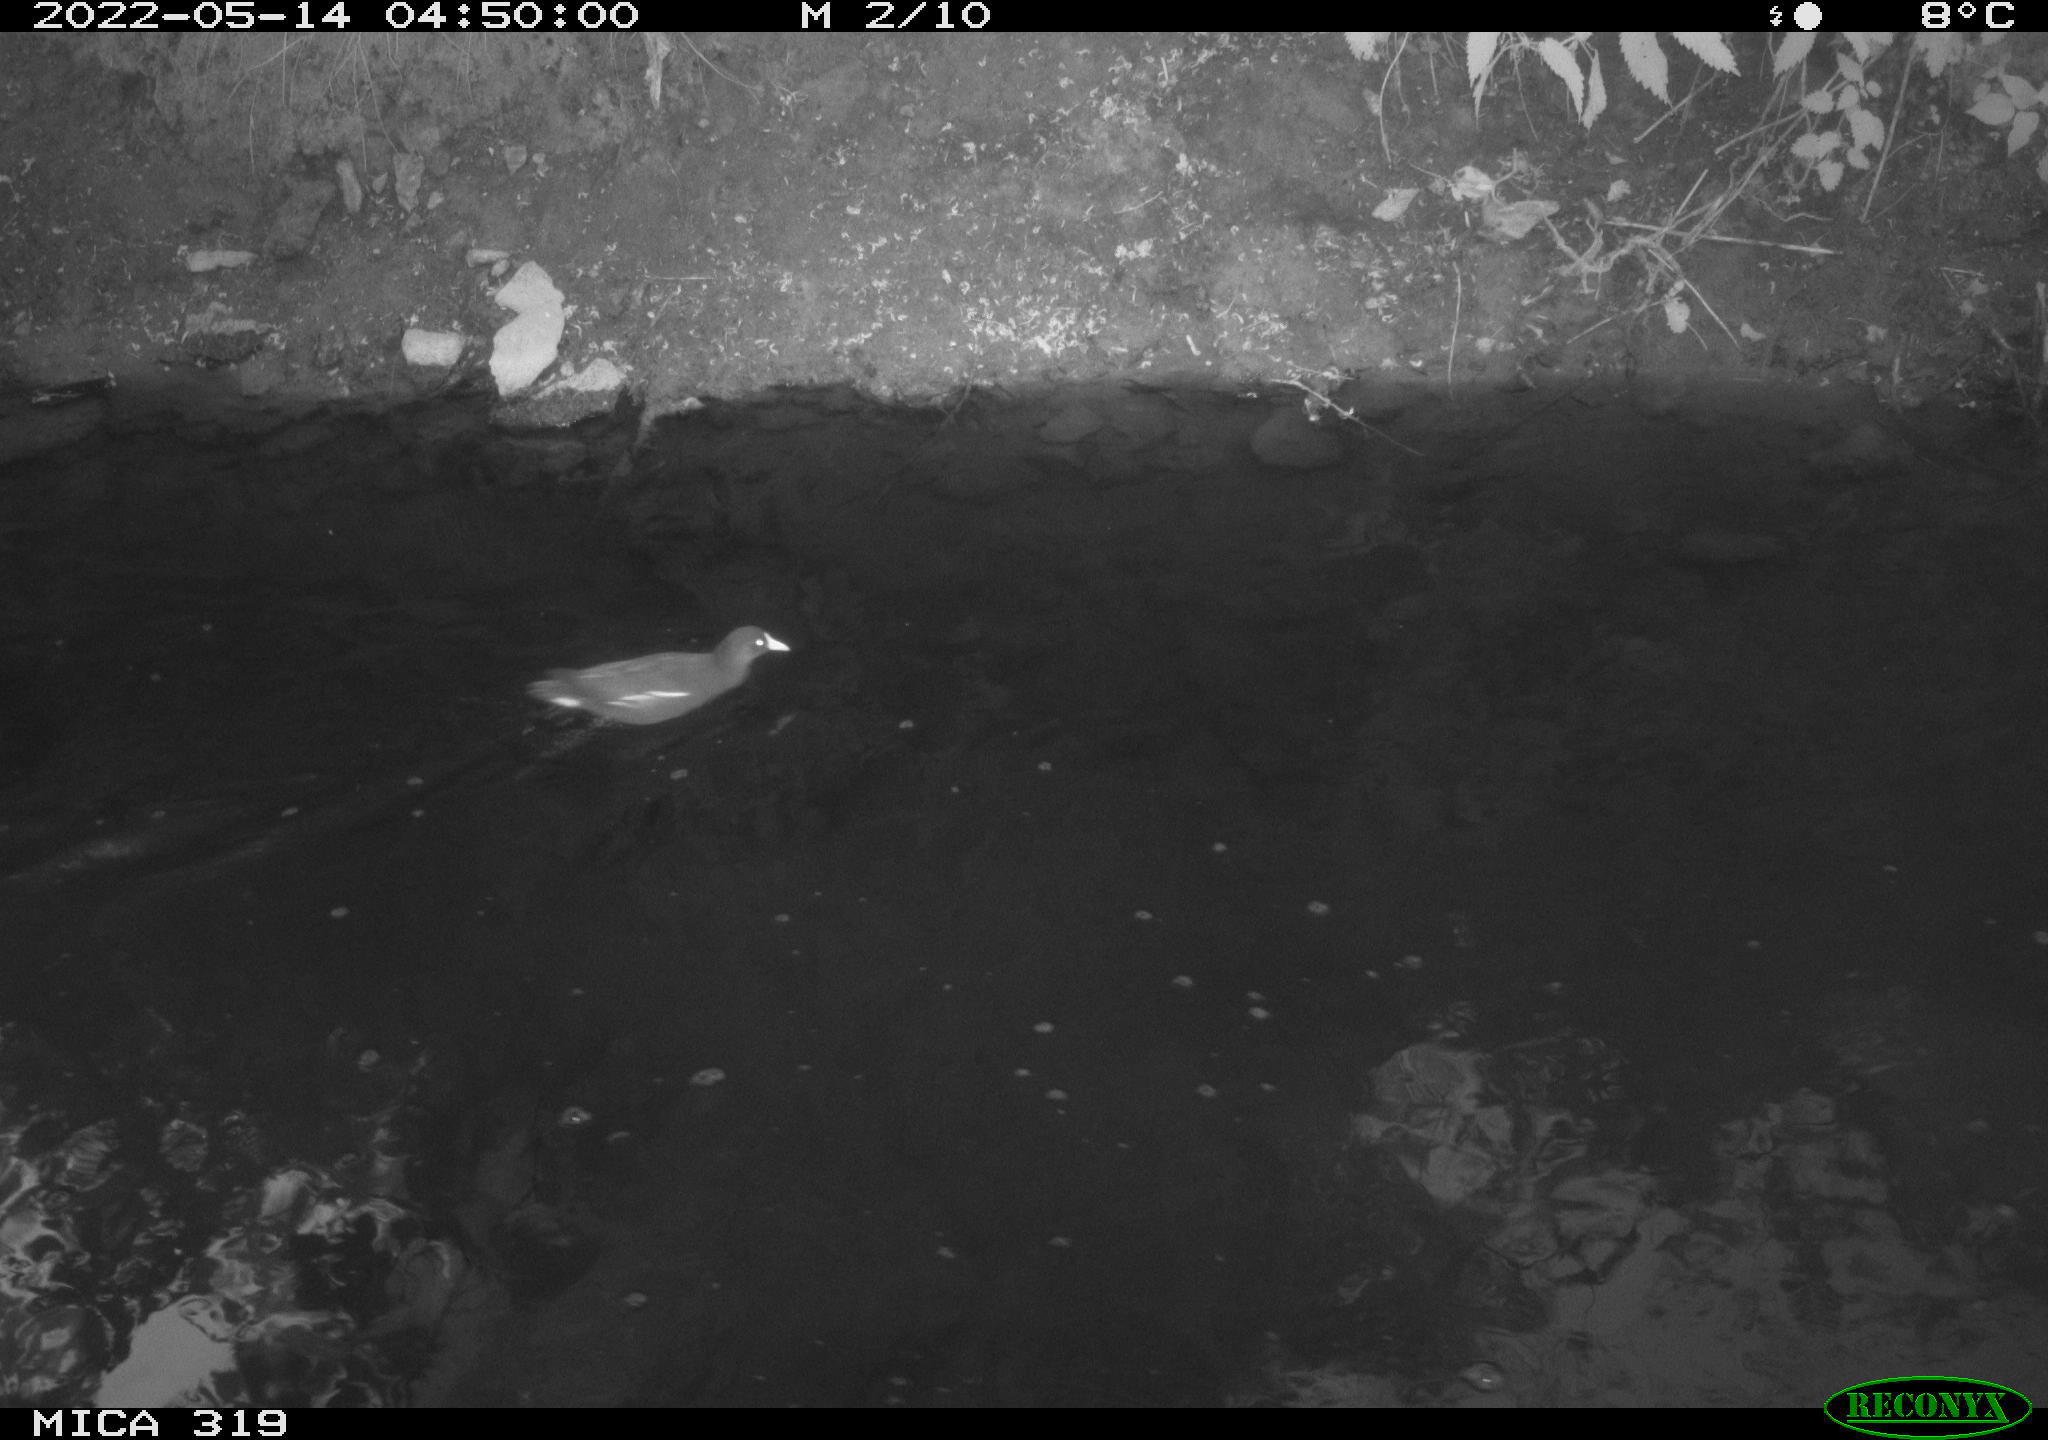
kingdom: Animalia
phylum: Chordata
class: Aves
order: Gruiformes
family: Rallidae
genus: Gallinula
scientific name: Gallinula chloropus
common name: Common moorhen
